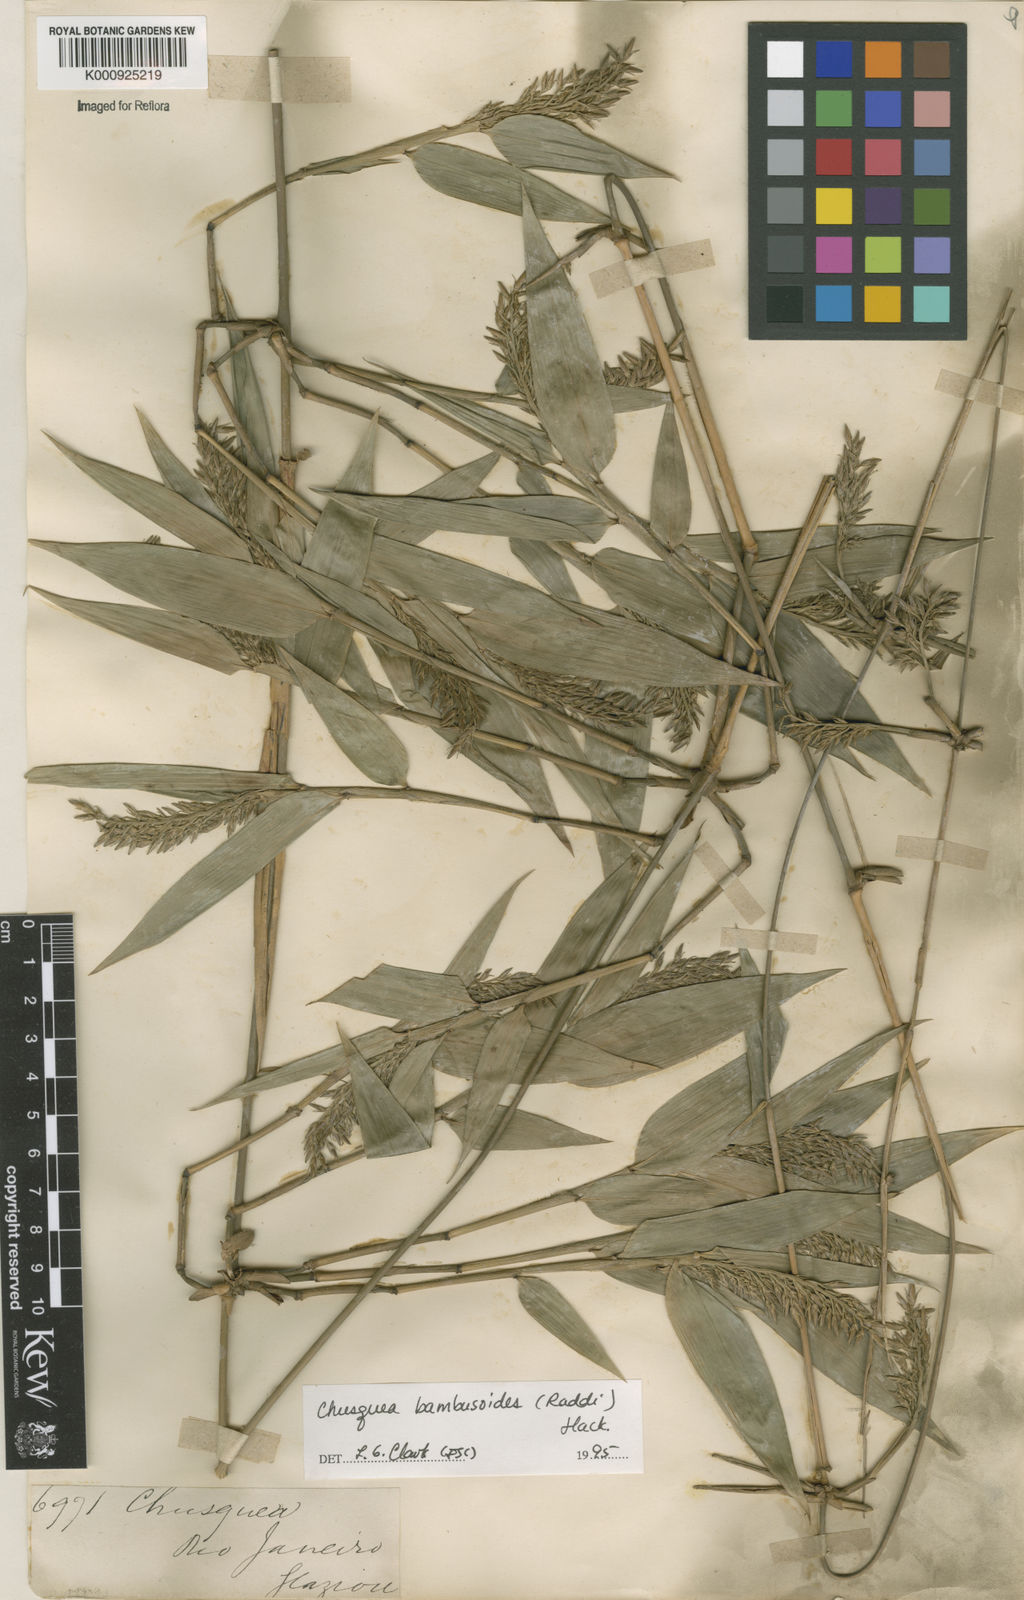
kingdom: Plantae
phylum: Tracheophyta
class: Liliopsida
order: Poales
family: Poaceae
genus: Chusquea
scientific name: Chusquea bambusoides
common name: Brazil scrambling bamboo
